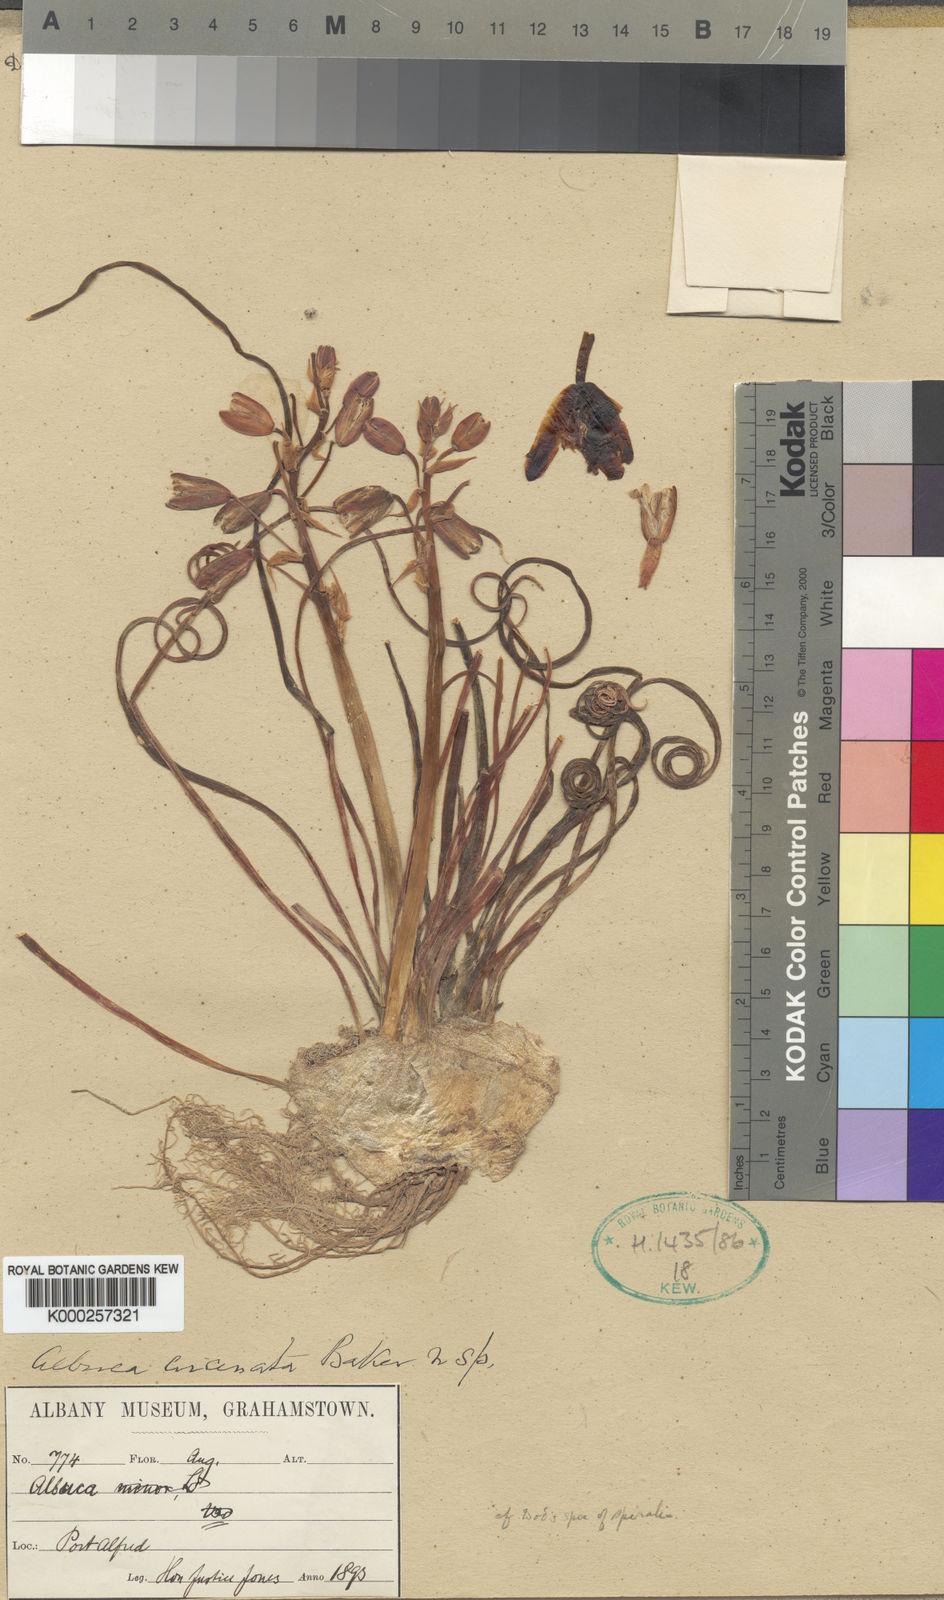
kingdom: Plantae
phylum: Tracheophyta
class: Liliopsida
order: Asparagales
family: Asparagaceae
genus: Albuca
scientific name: Albuca namaquensis
